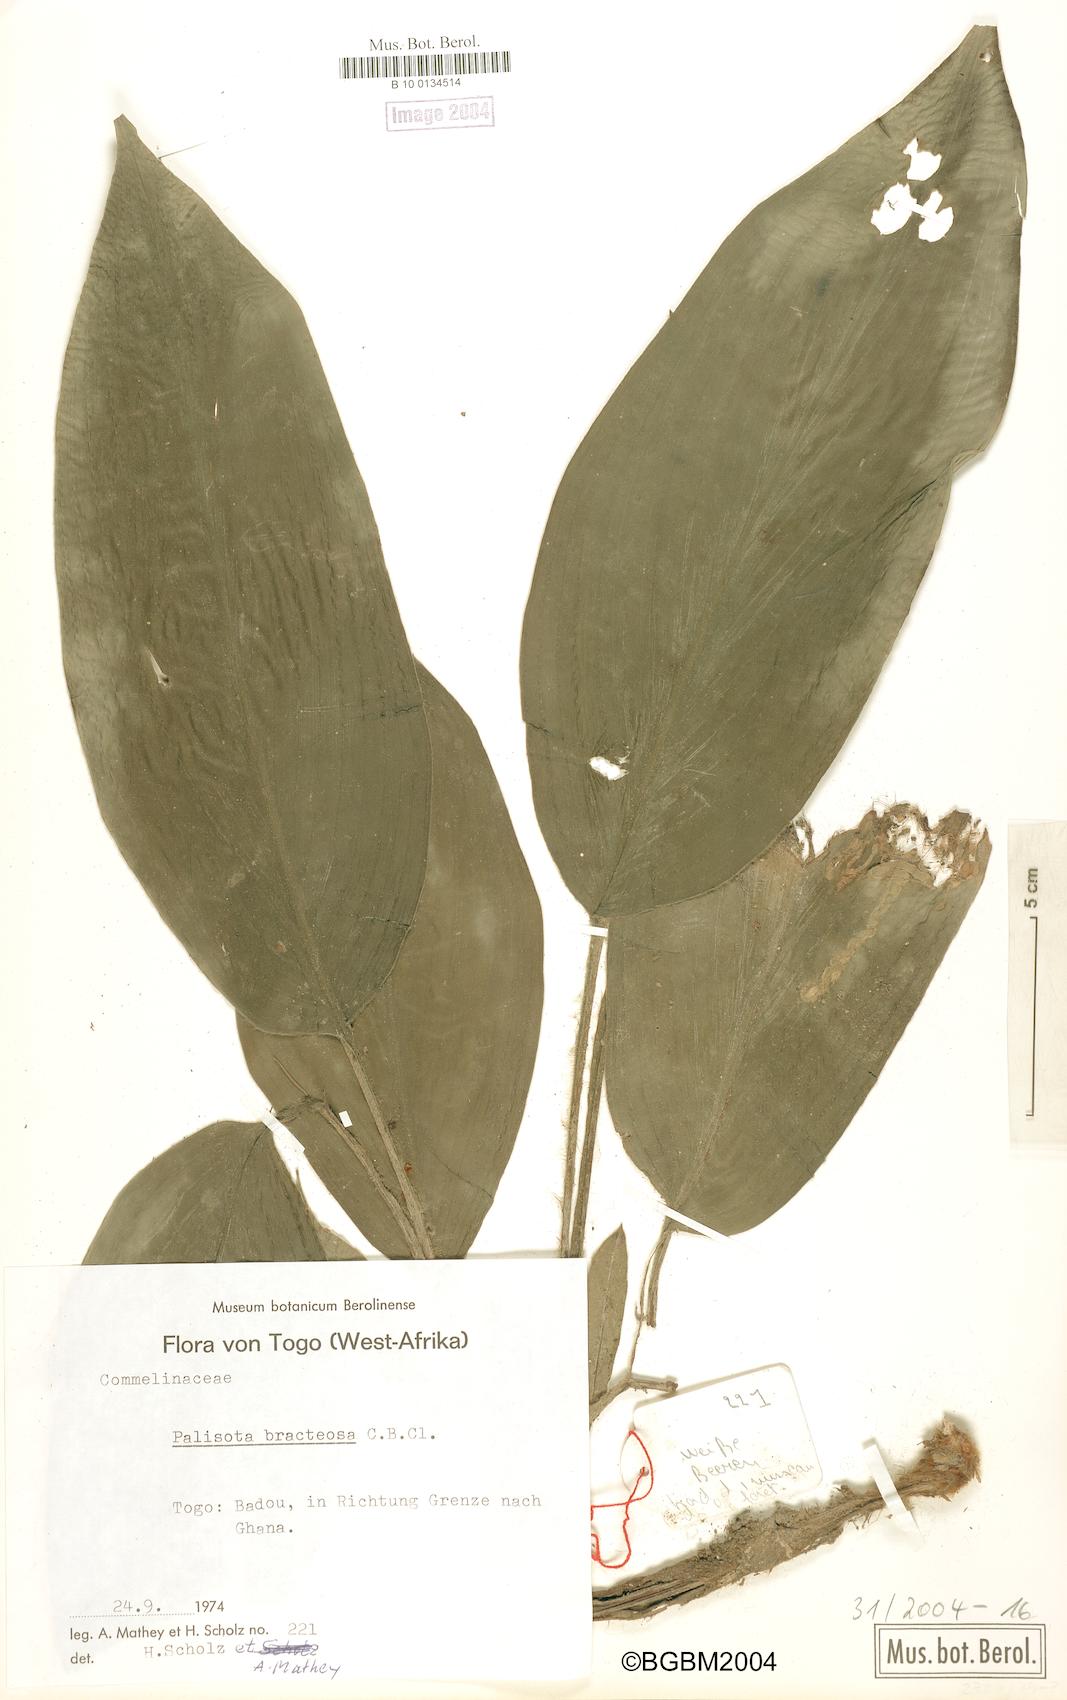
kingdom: Plantae
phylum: Tracheophyta
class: Liliopsida
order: Commelinales
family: Commelinaceae
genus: Palisota
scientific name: Palisota barteri
